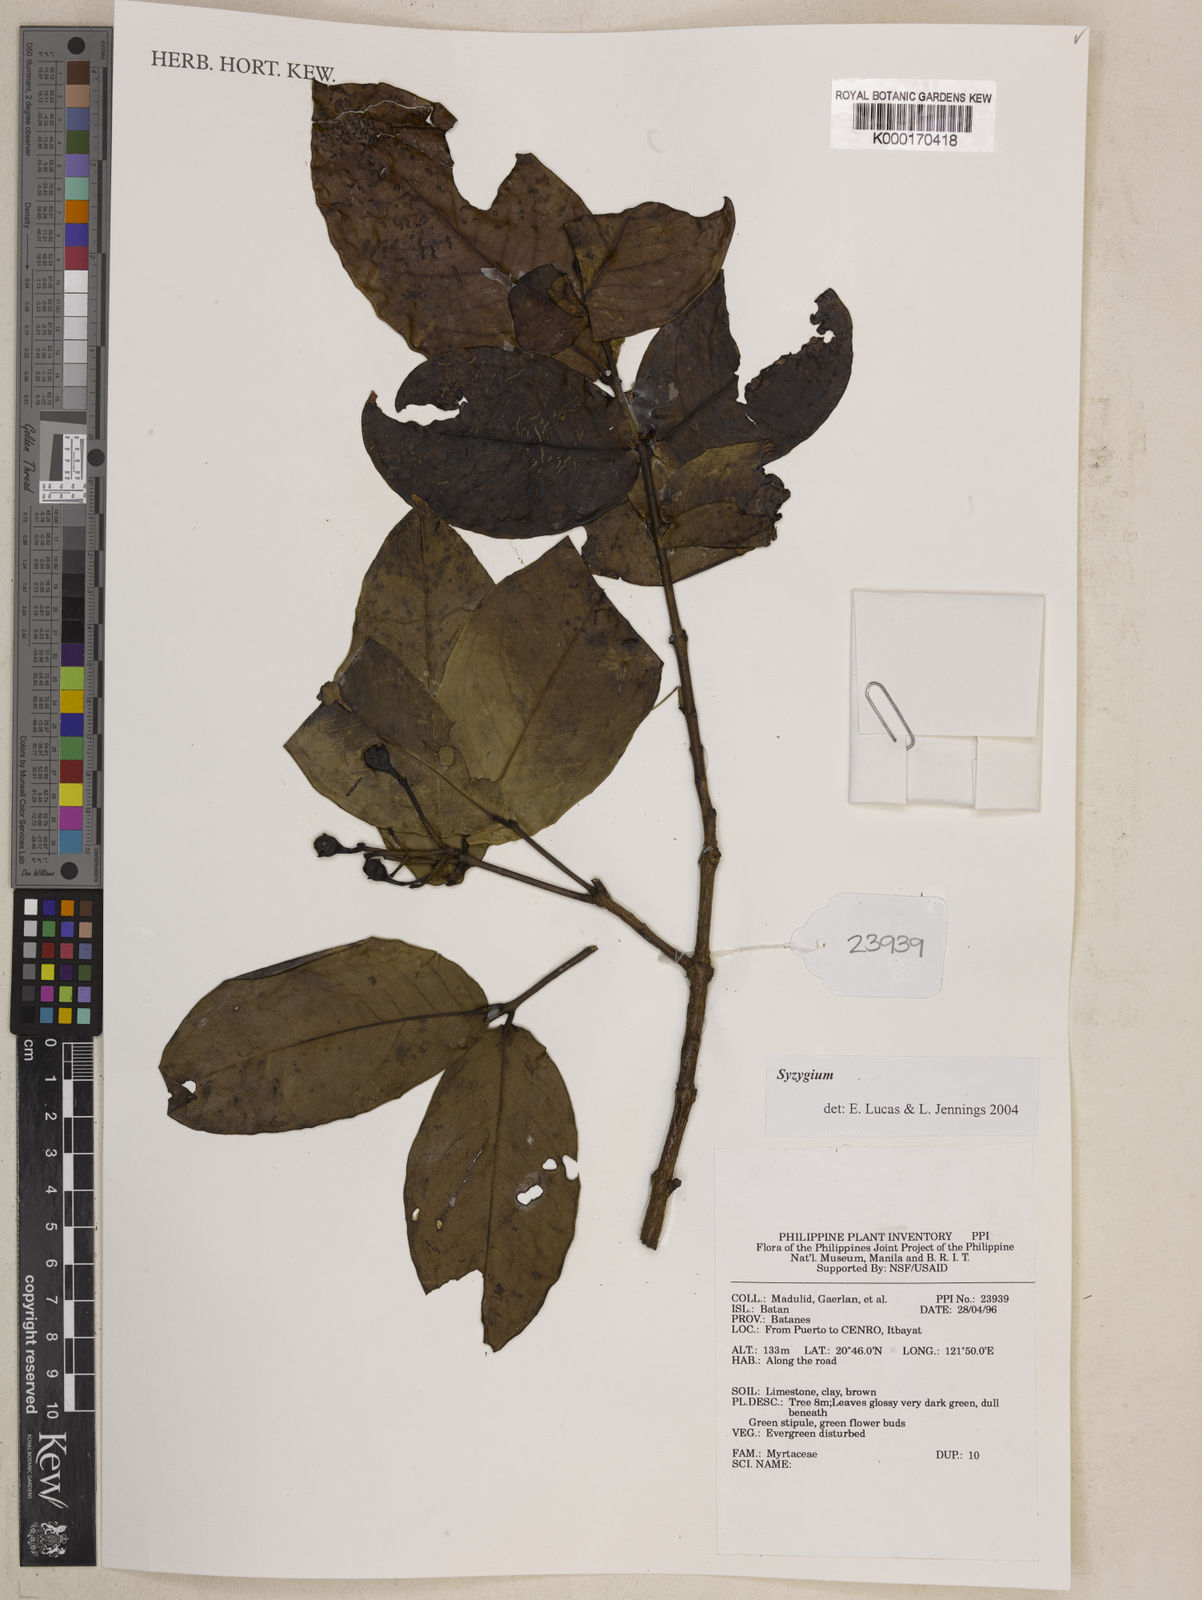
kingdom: Plantae
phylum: Tracheophyta
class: Magnoliopsida
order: Myrtales
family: Myrtaceae
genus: Syzygium
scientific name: Syzygium
